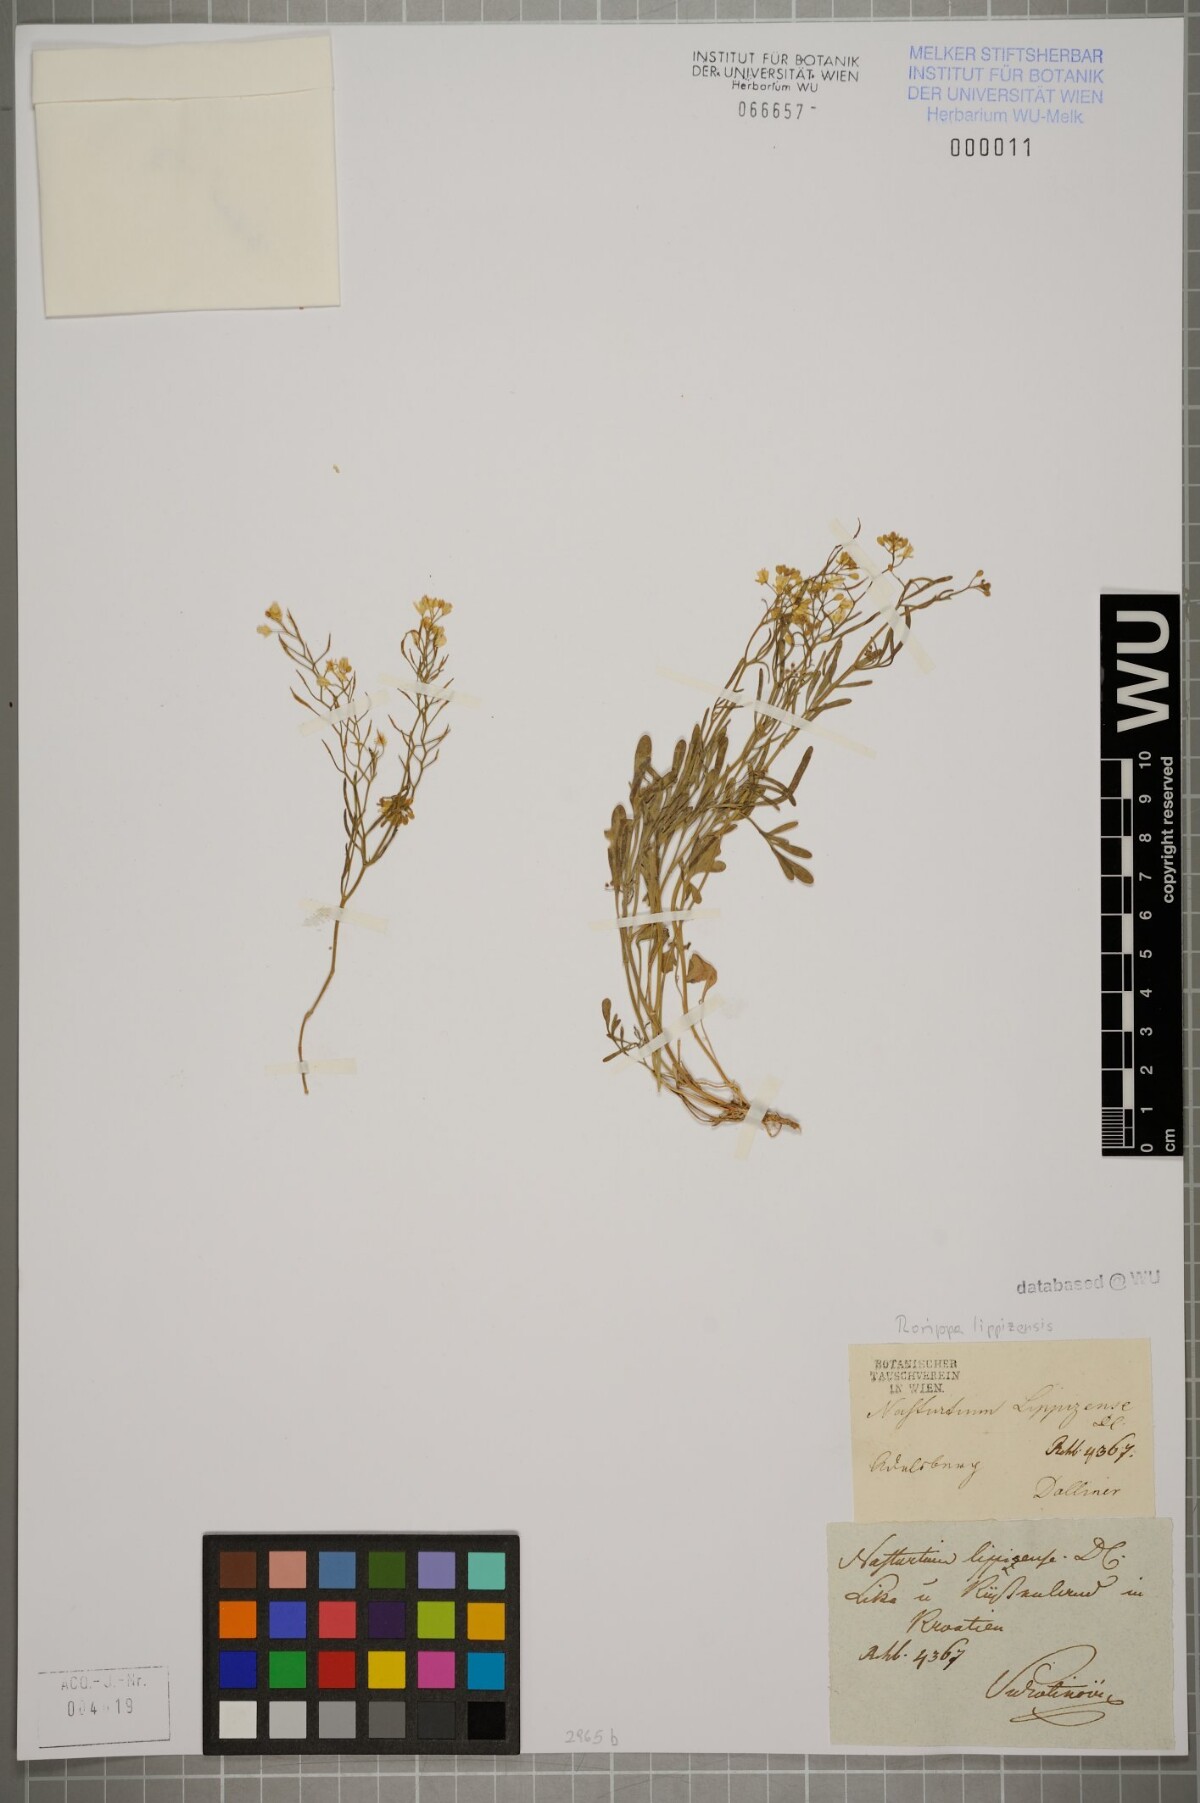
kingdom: Plantae
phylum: Tracheophyta
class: Magnoliopsida
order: Brassicales
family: Brassicaceae
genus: Rorippa
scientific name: Rorippa lippizensis
